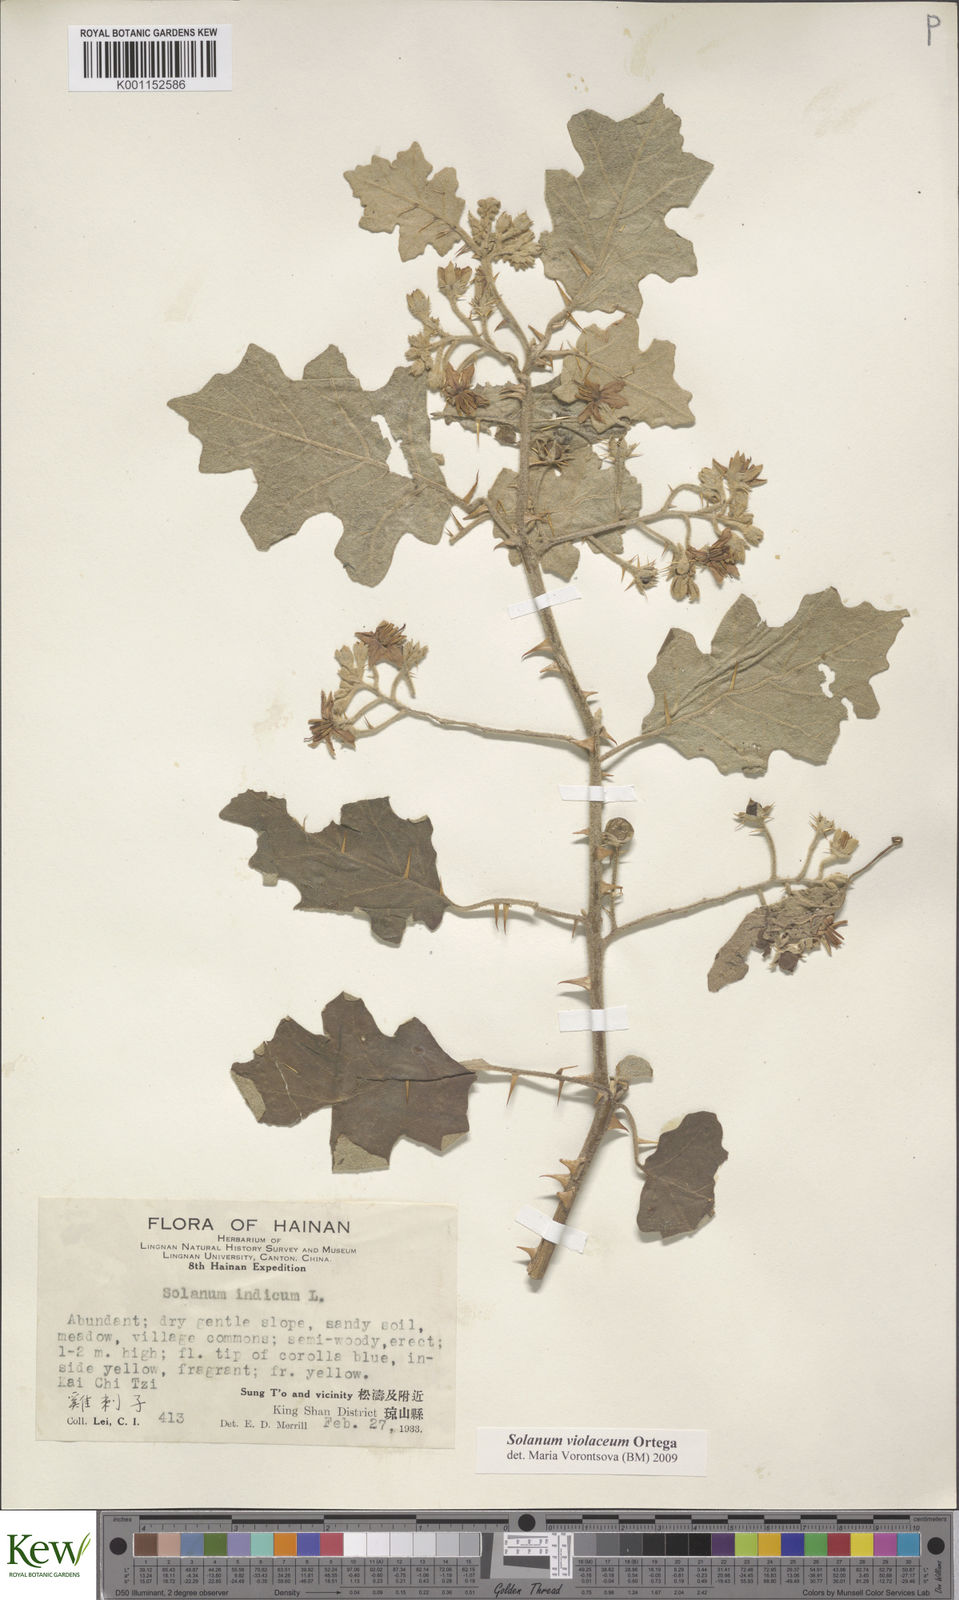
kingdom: Plantae
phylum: Tracheophyta
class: Magnoliopsida
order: Solanales
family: Solanaceae
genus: Solanum
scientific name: Solanum violaceum
